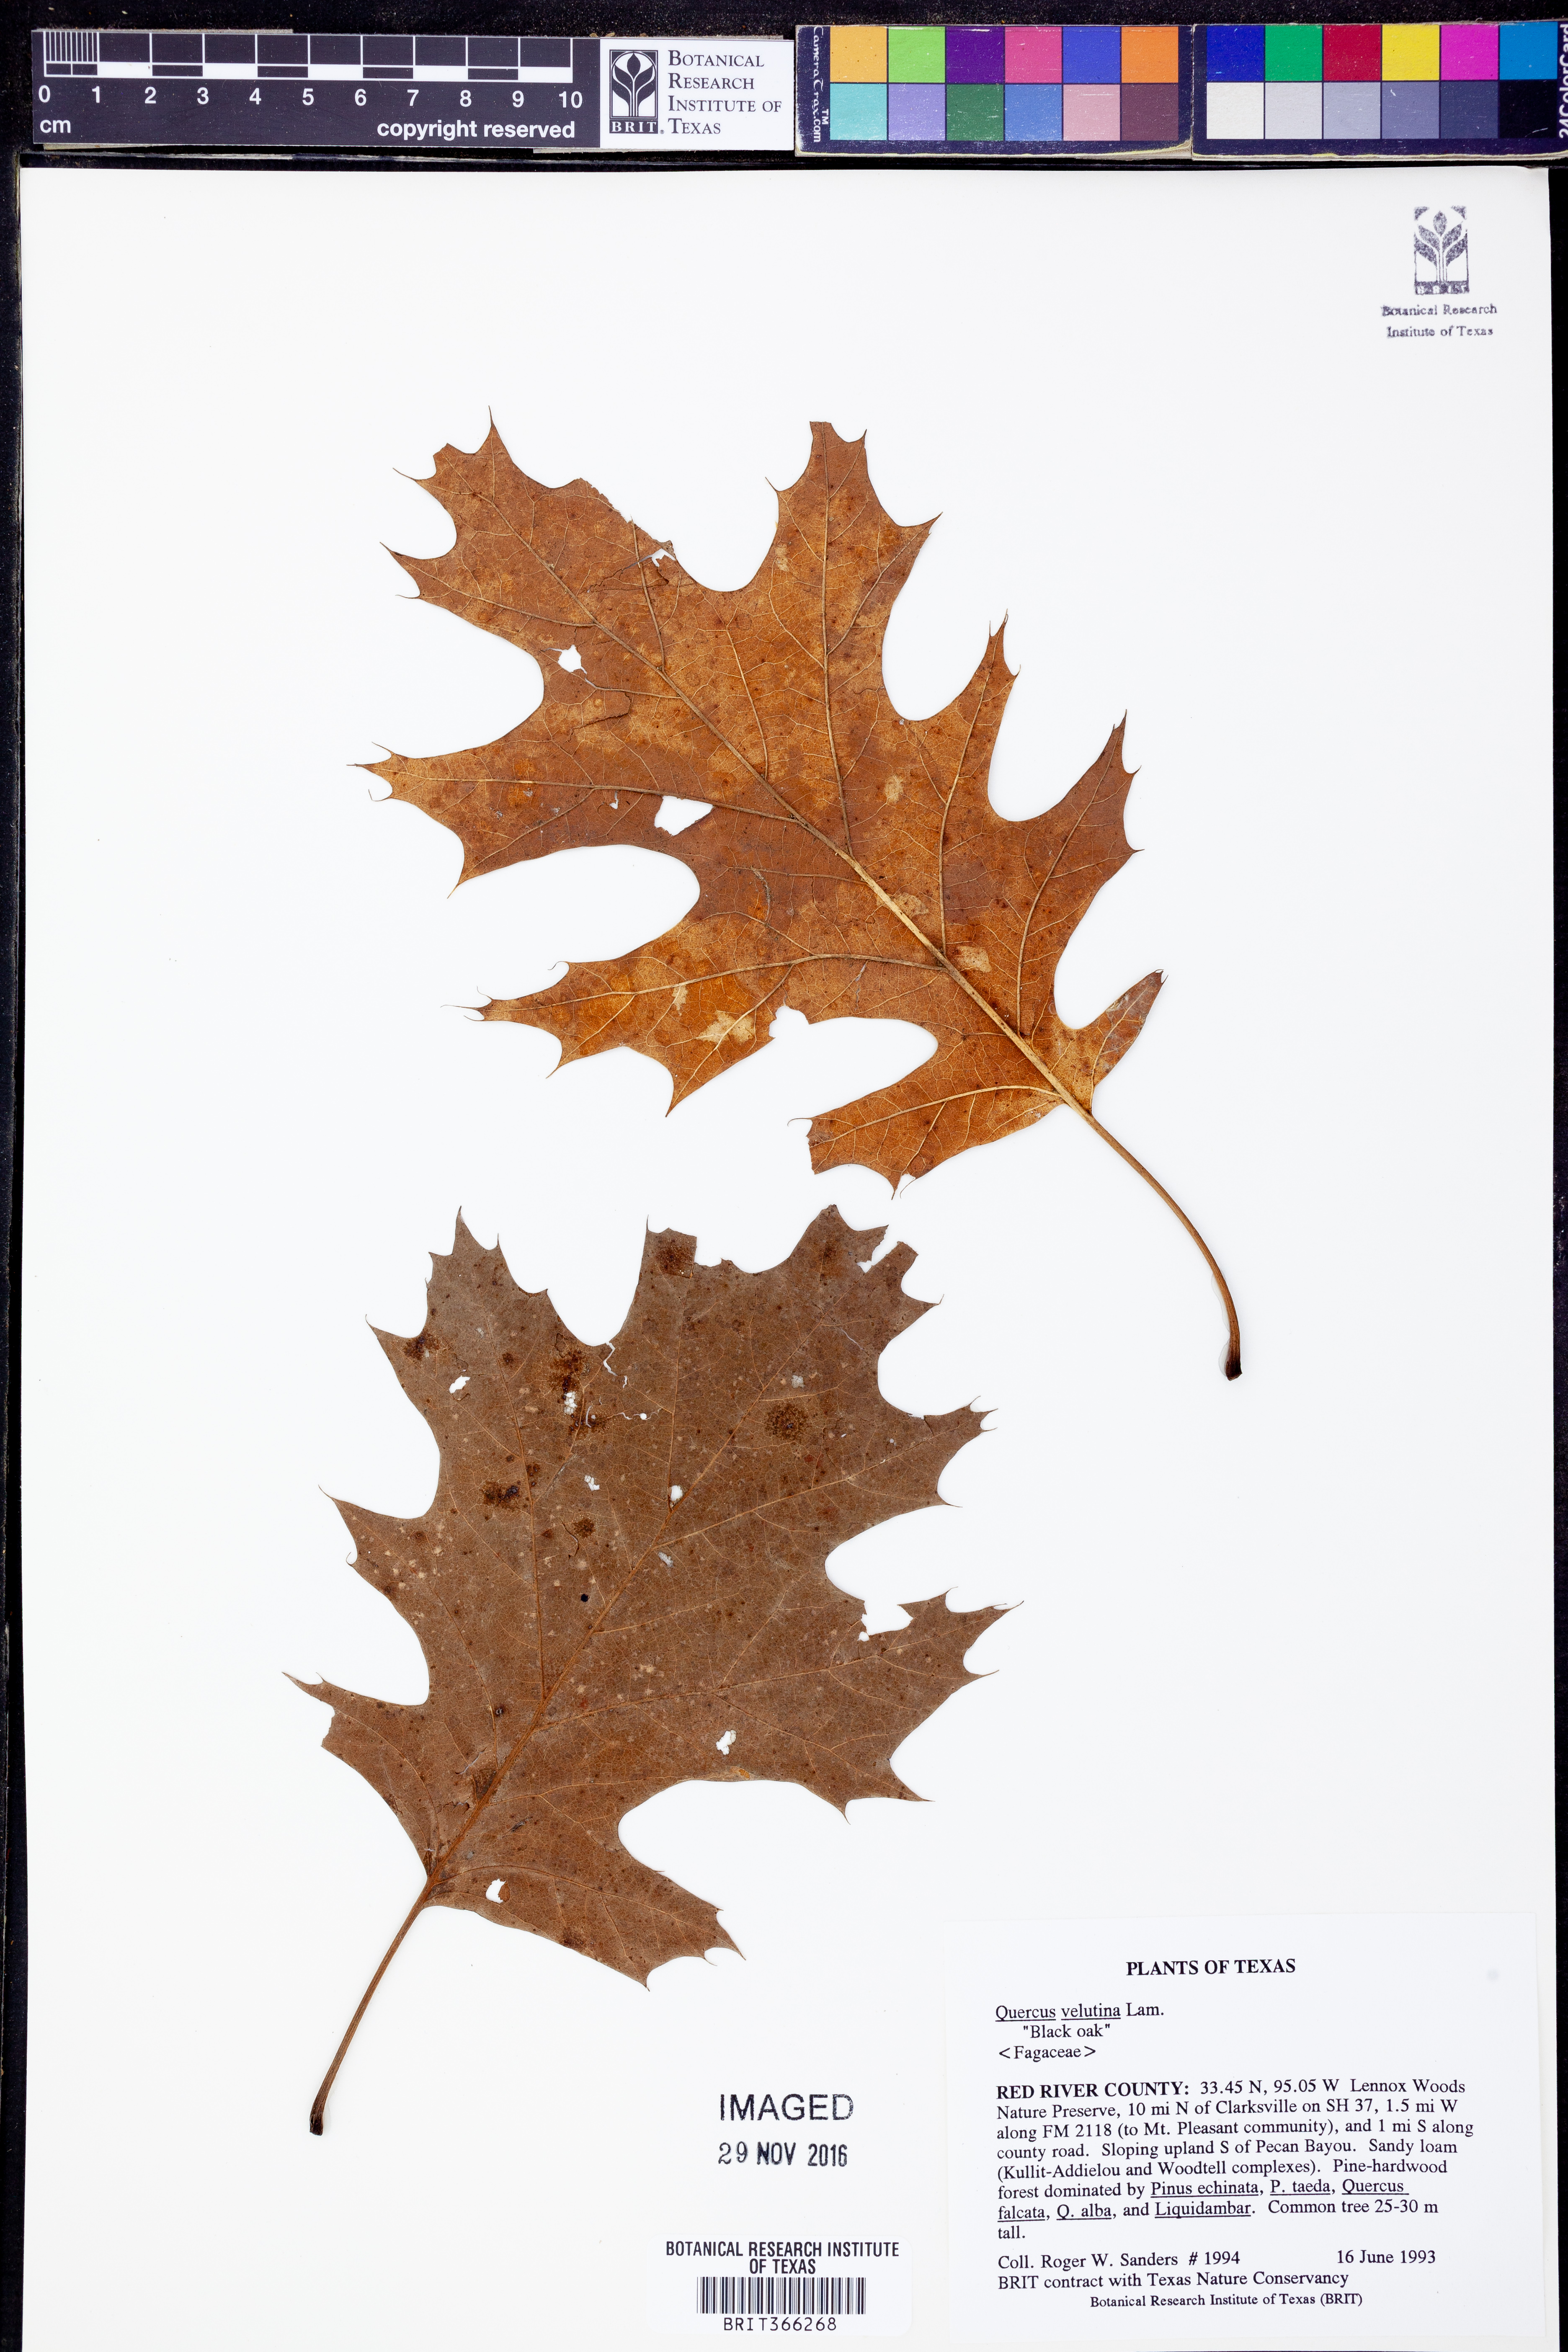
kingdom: Plantae
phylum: Tracheophyta
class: Magnoliopsida
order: Fagales
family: Fagaceae
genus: Quercus
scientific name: Quercus velutina
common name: Black oak
